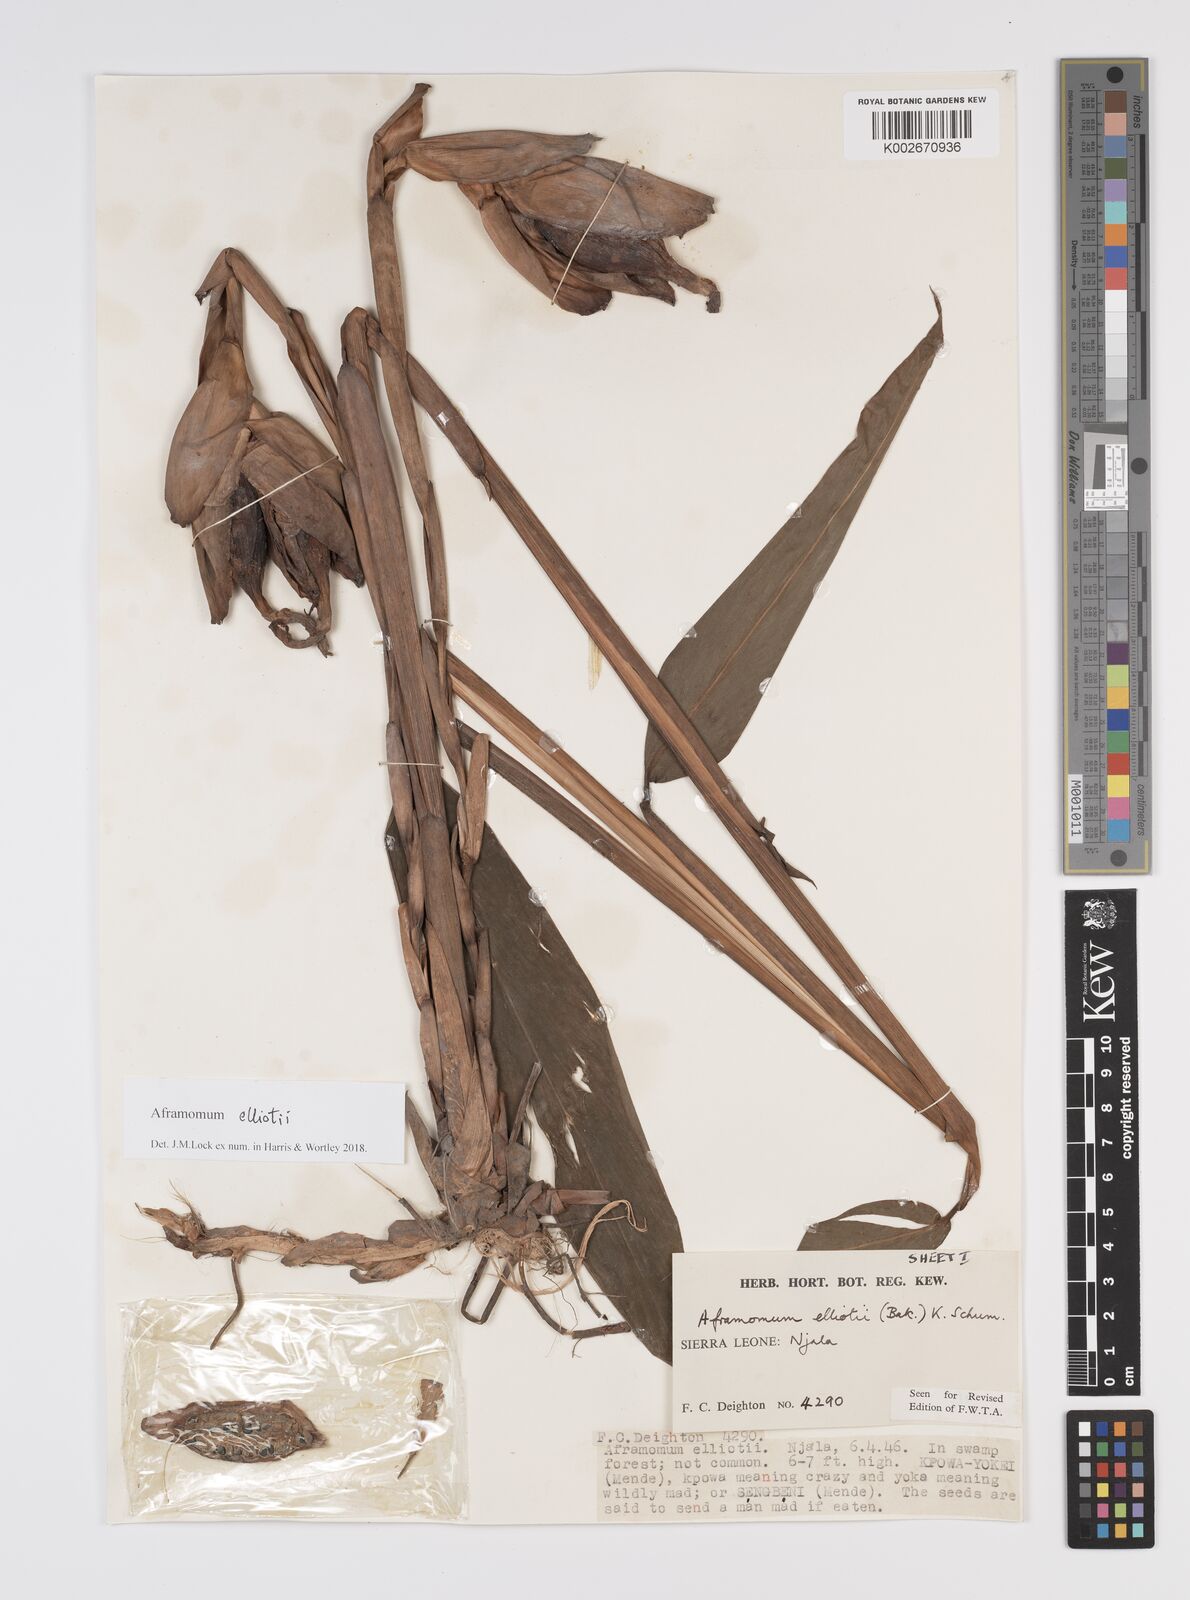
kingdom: Plantae
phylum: Tracheophyta
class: Liliopsida
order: Zingiberales
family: Zingiberaceae
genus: Aframomum
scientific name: Aframomum elliottii
